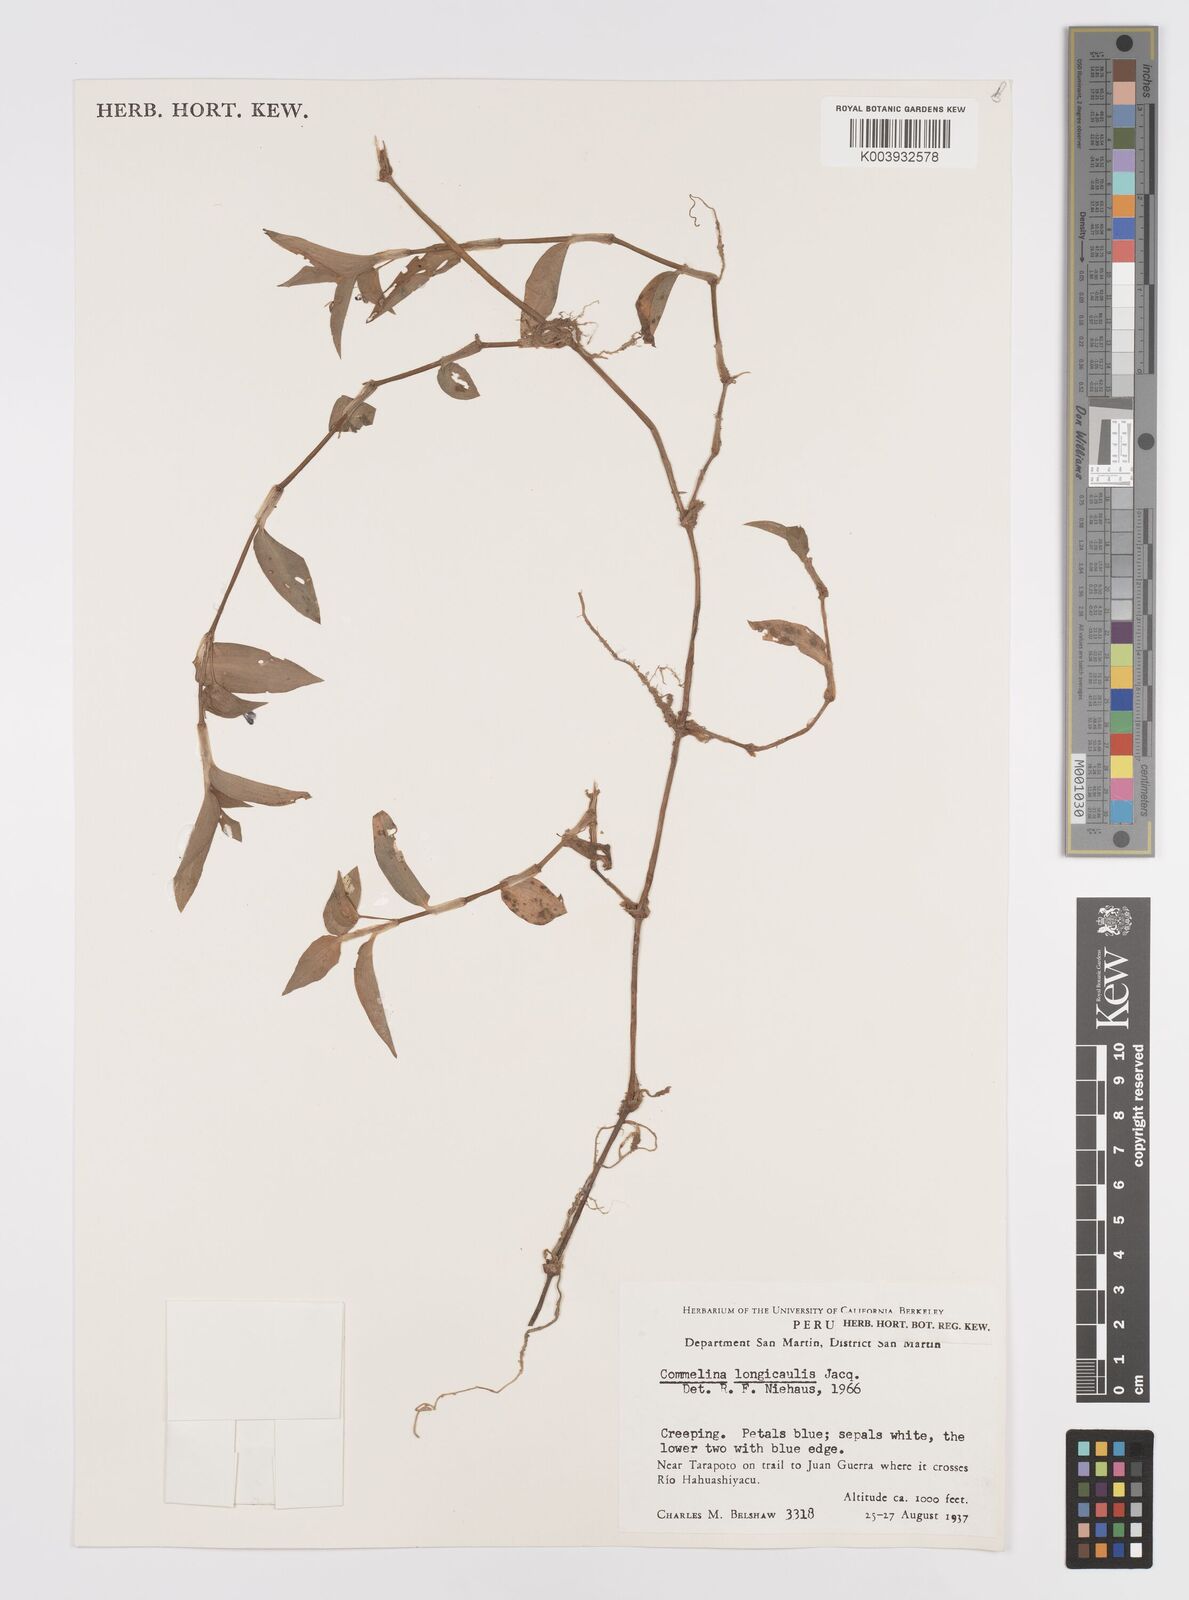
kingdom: Plantae
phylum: Tracheophyta
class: Liliopsida
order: Commelinales
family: Commelinaceae
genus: Commelina
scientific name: Commelina diffusa
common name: Climbing dayflower
